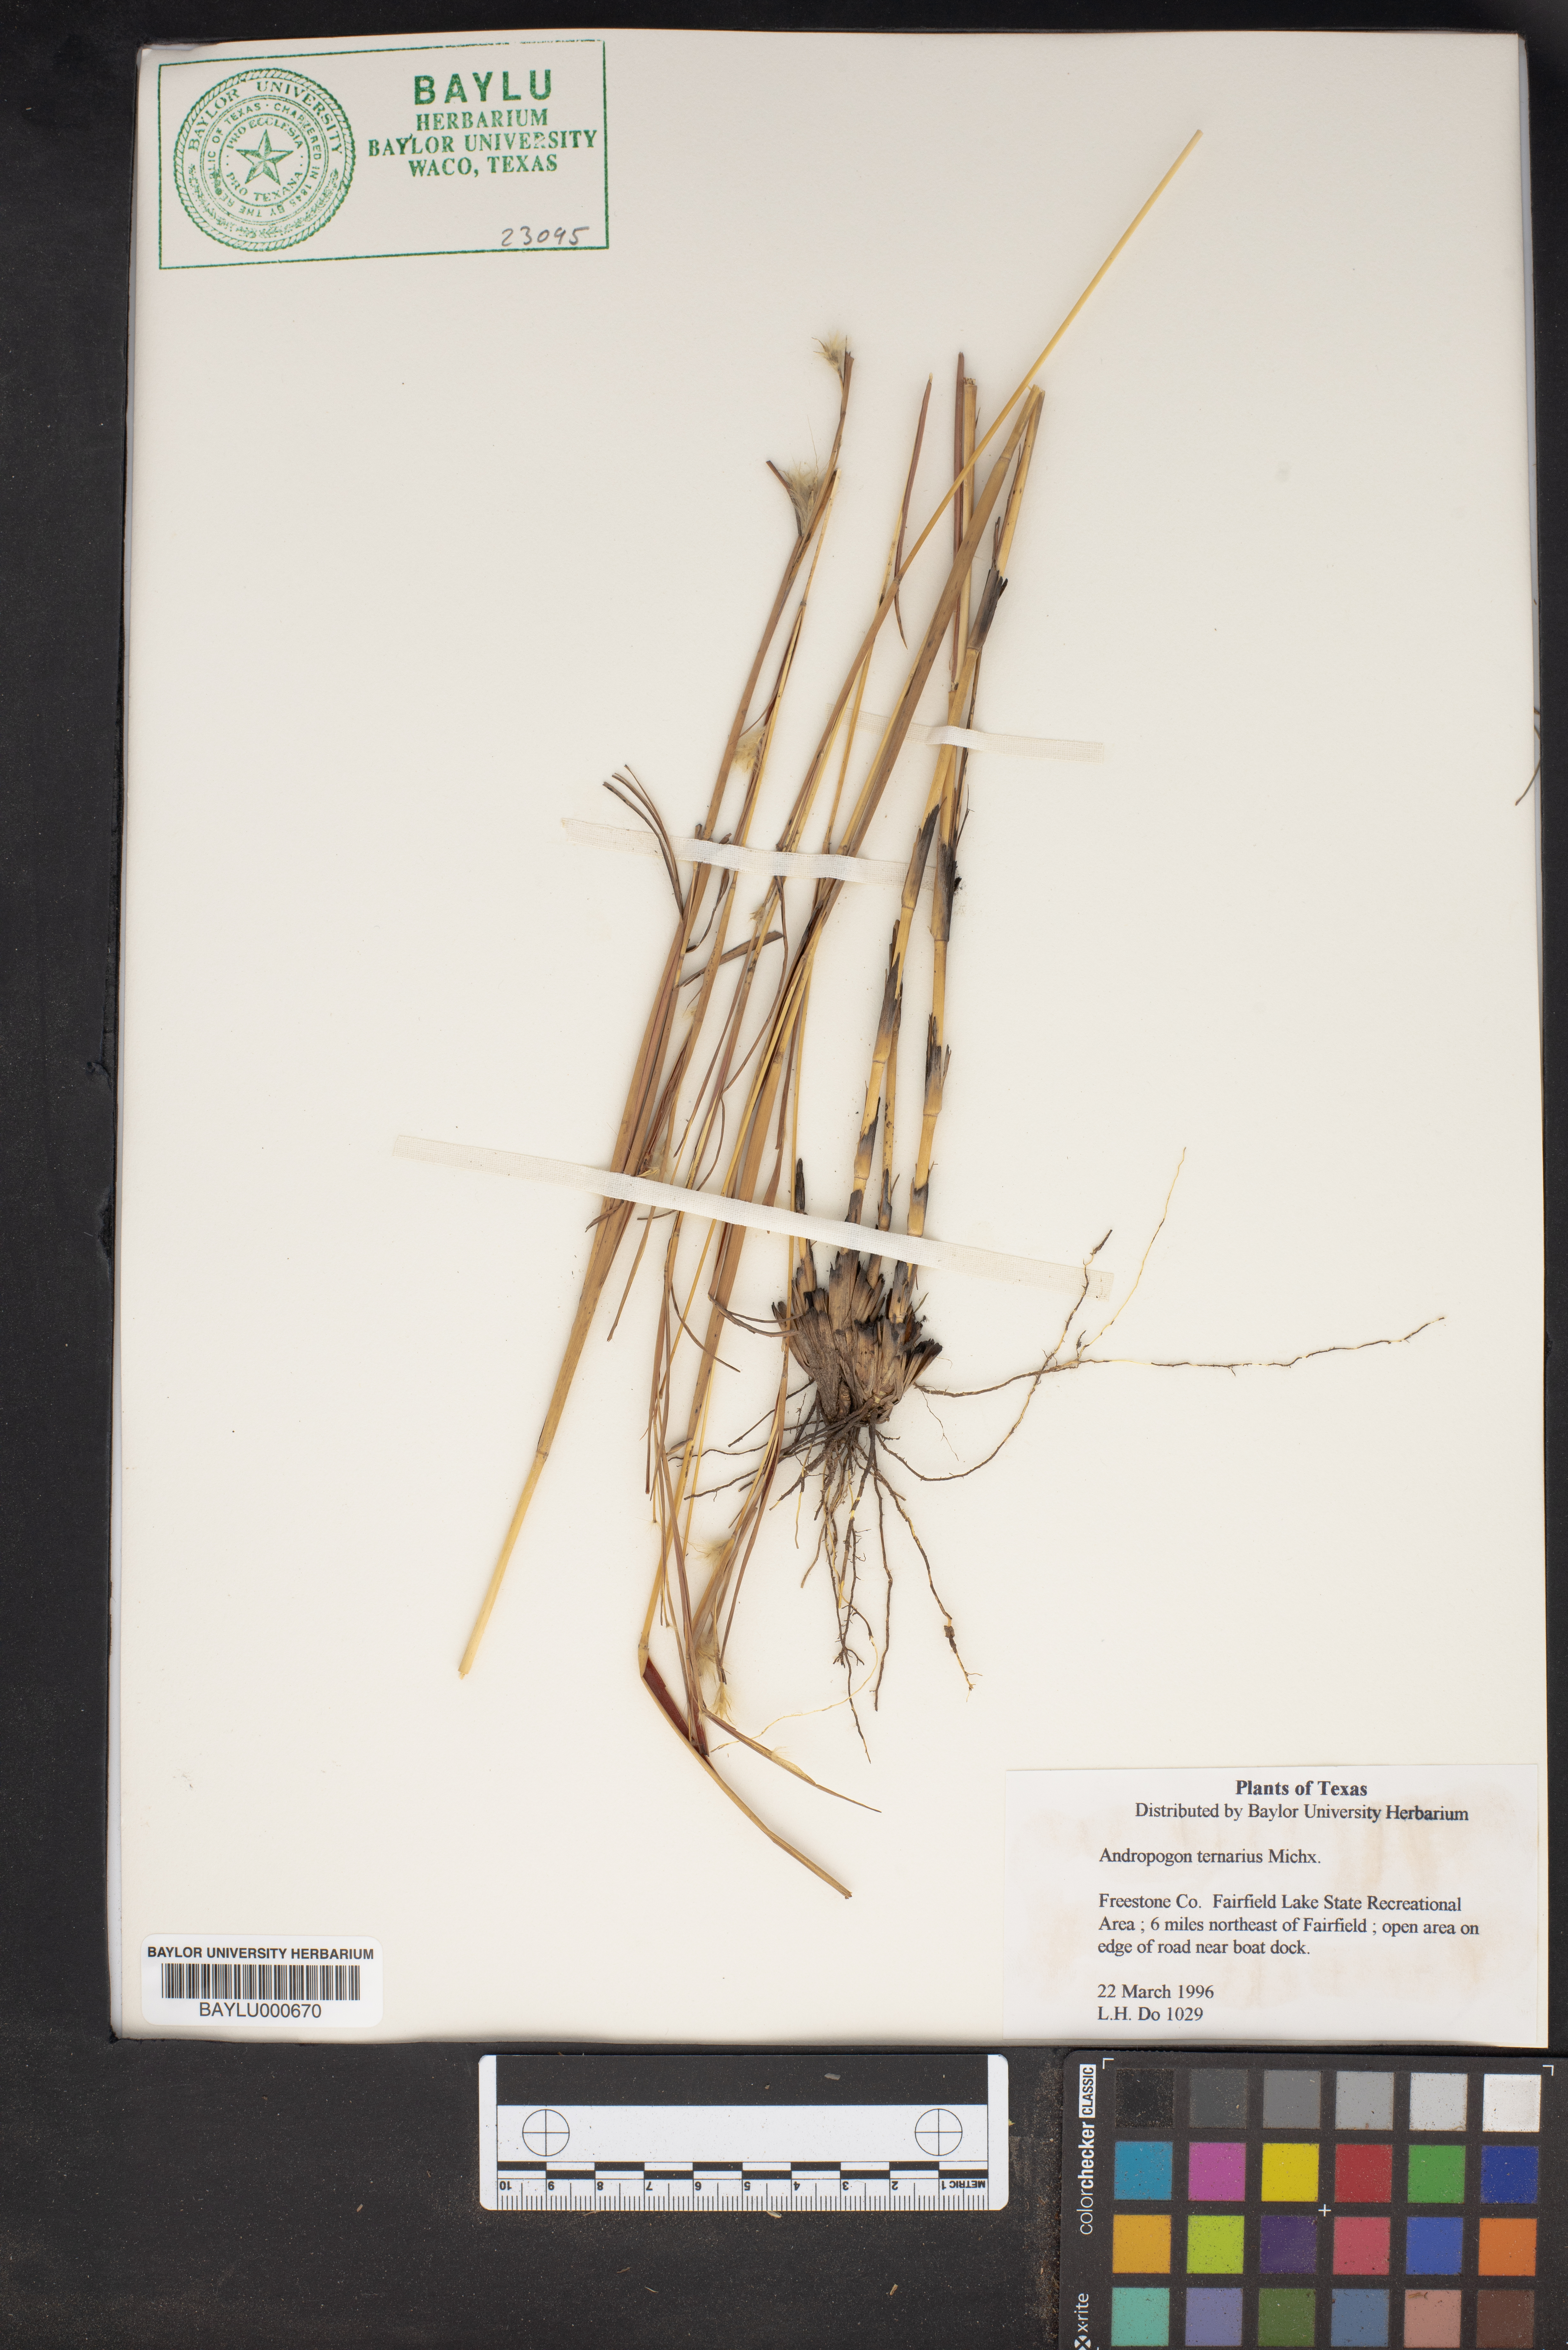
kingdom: Plantae
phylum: Tracheophyta
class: Liliopsida
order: Poales
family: Poaceae
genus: Andropogon
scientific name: Andropogon ternarius
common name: Split bluestem
